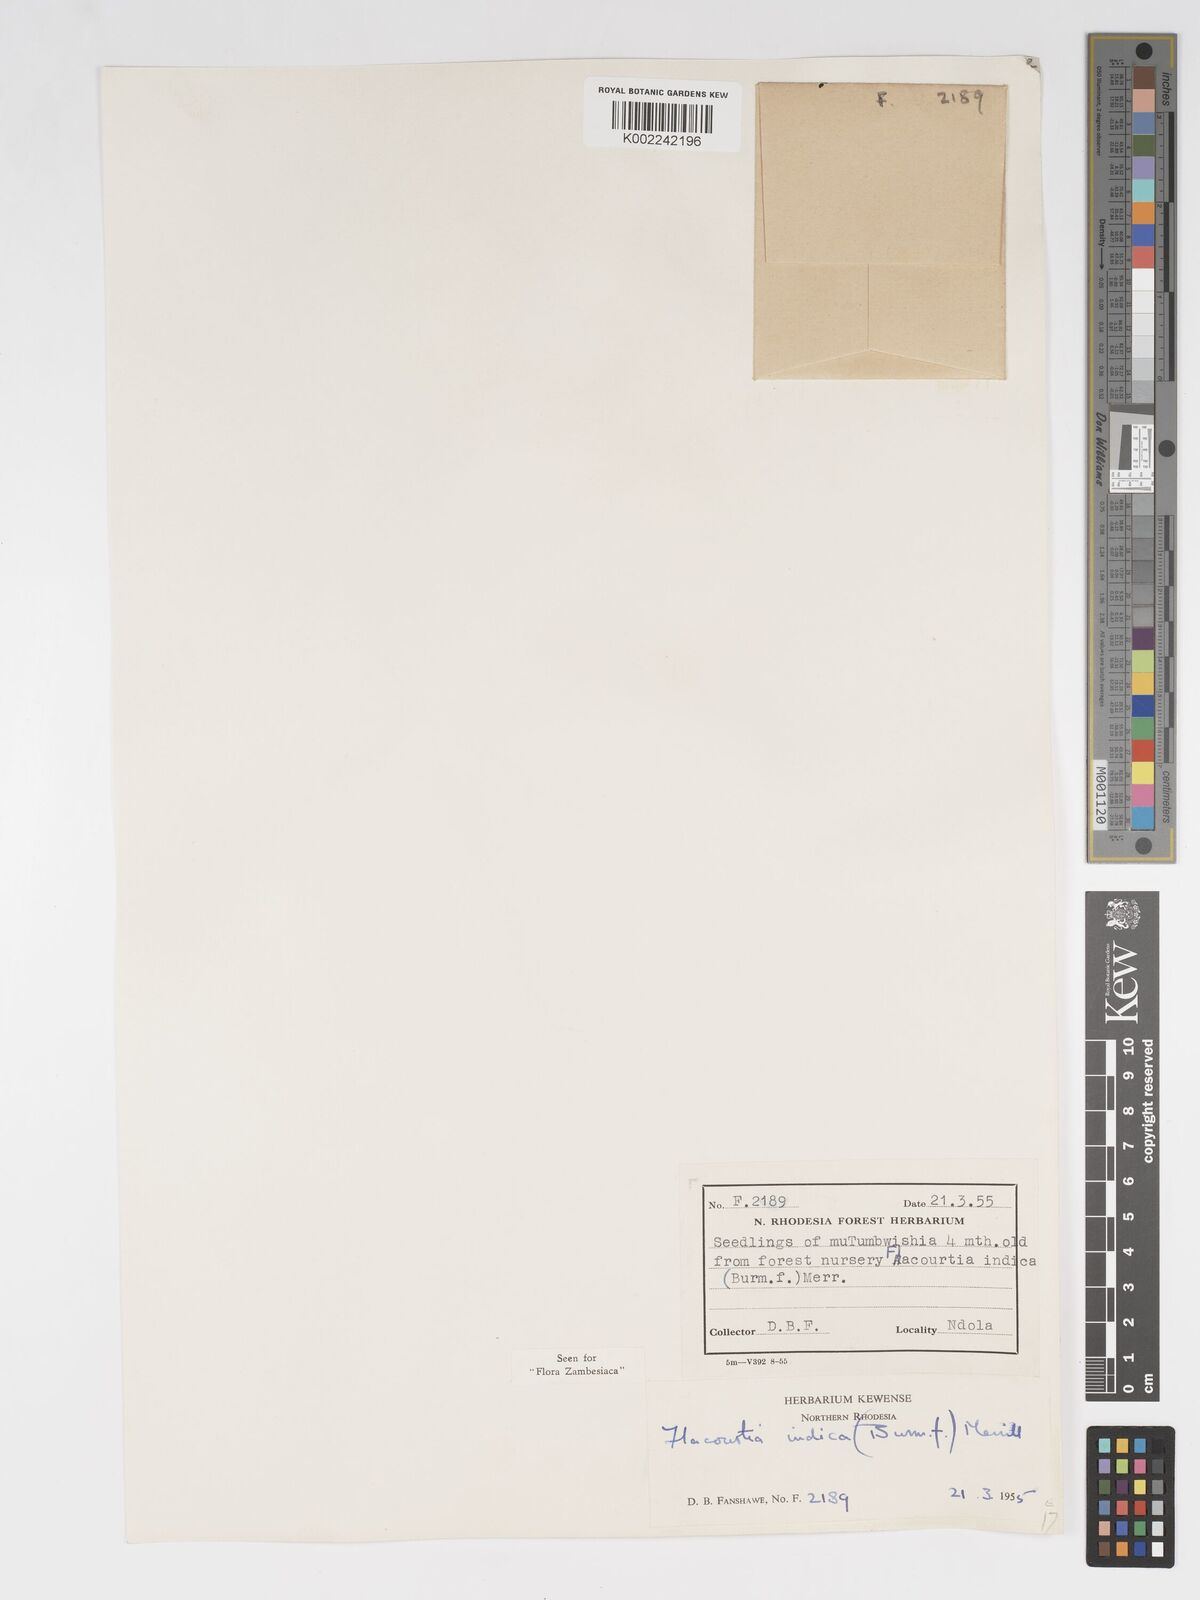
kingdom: Plantae
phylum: Tracheophyta
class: Magnoliopsida
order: Malpighiales
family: Salicaceae
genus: Flacourtia
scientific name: Flacourtia indica
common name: Governor's plum
